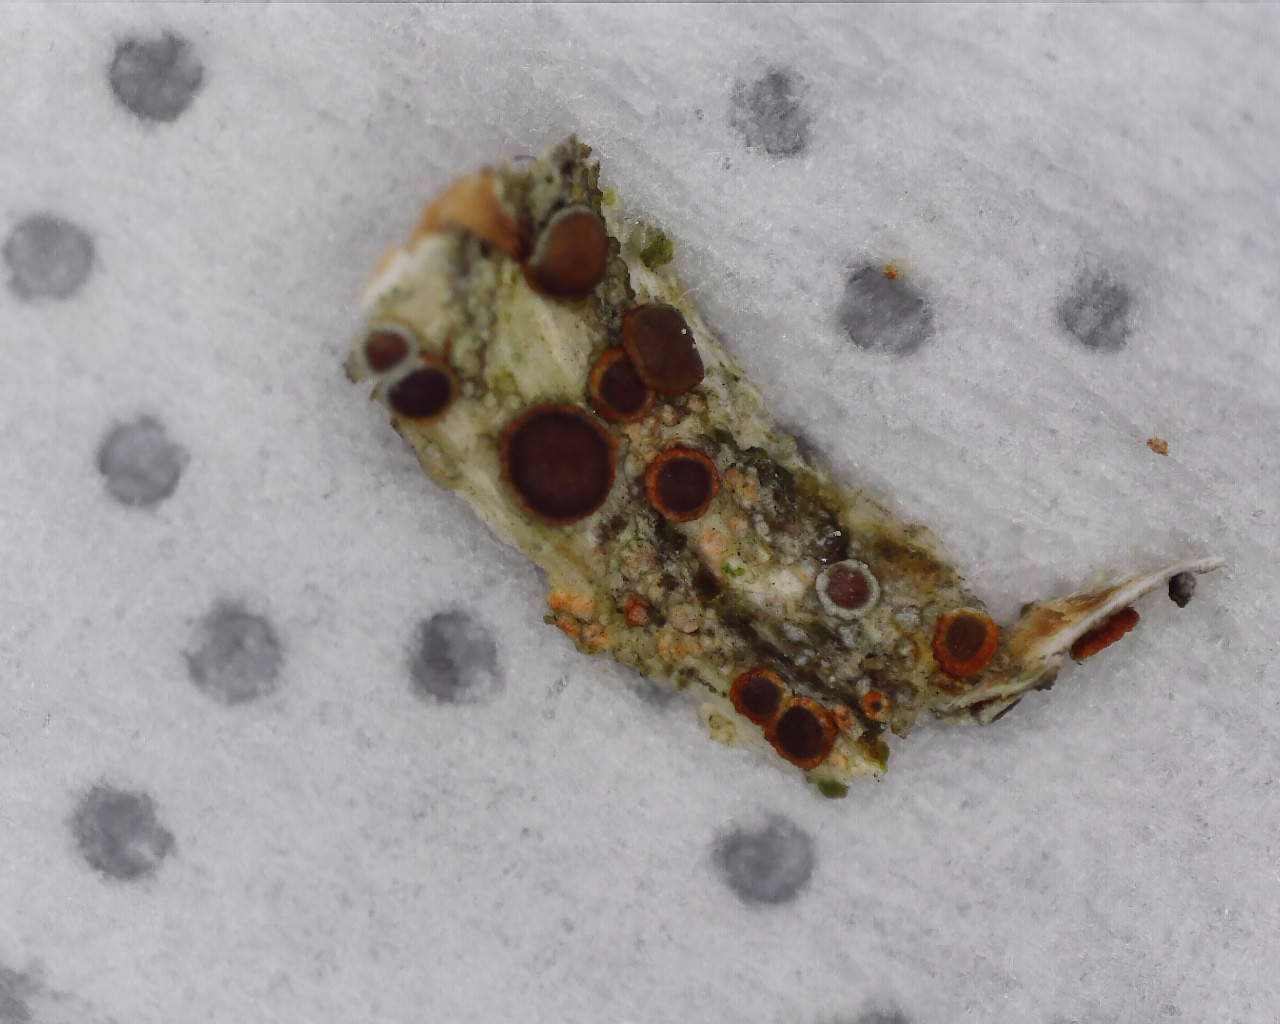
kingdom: Fungi
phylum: Ascomycota
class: Lecanoromycetes
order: Lecanorales
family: Lecanoraceae
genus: Lecanora
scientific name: Lecanora pulicaris
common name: almindelig kantskivelav
